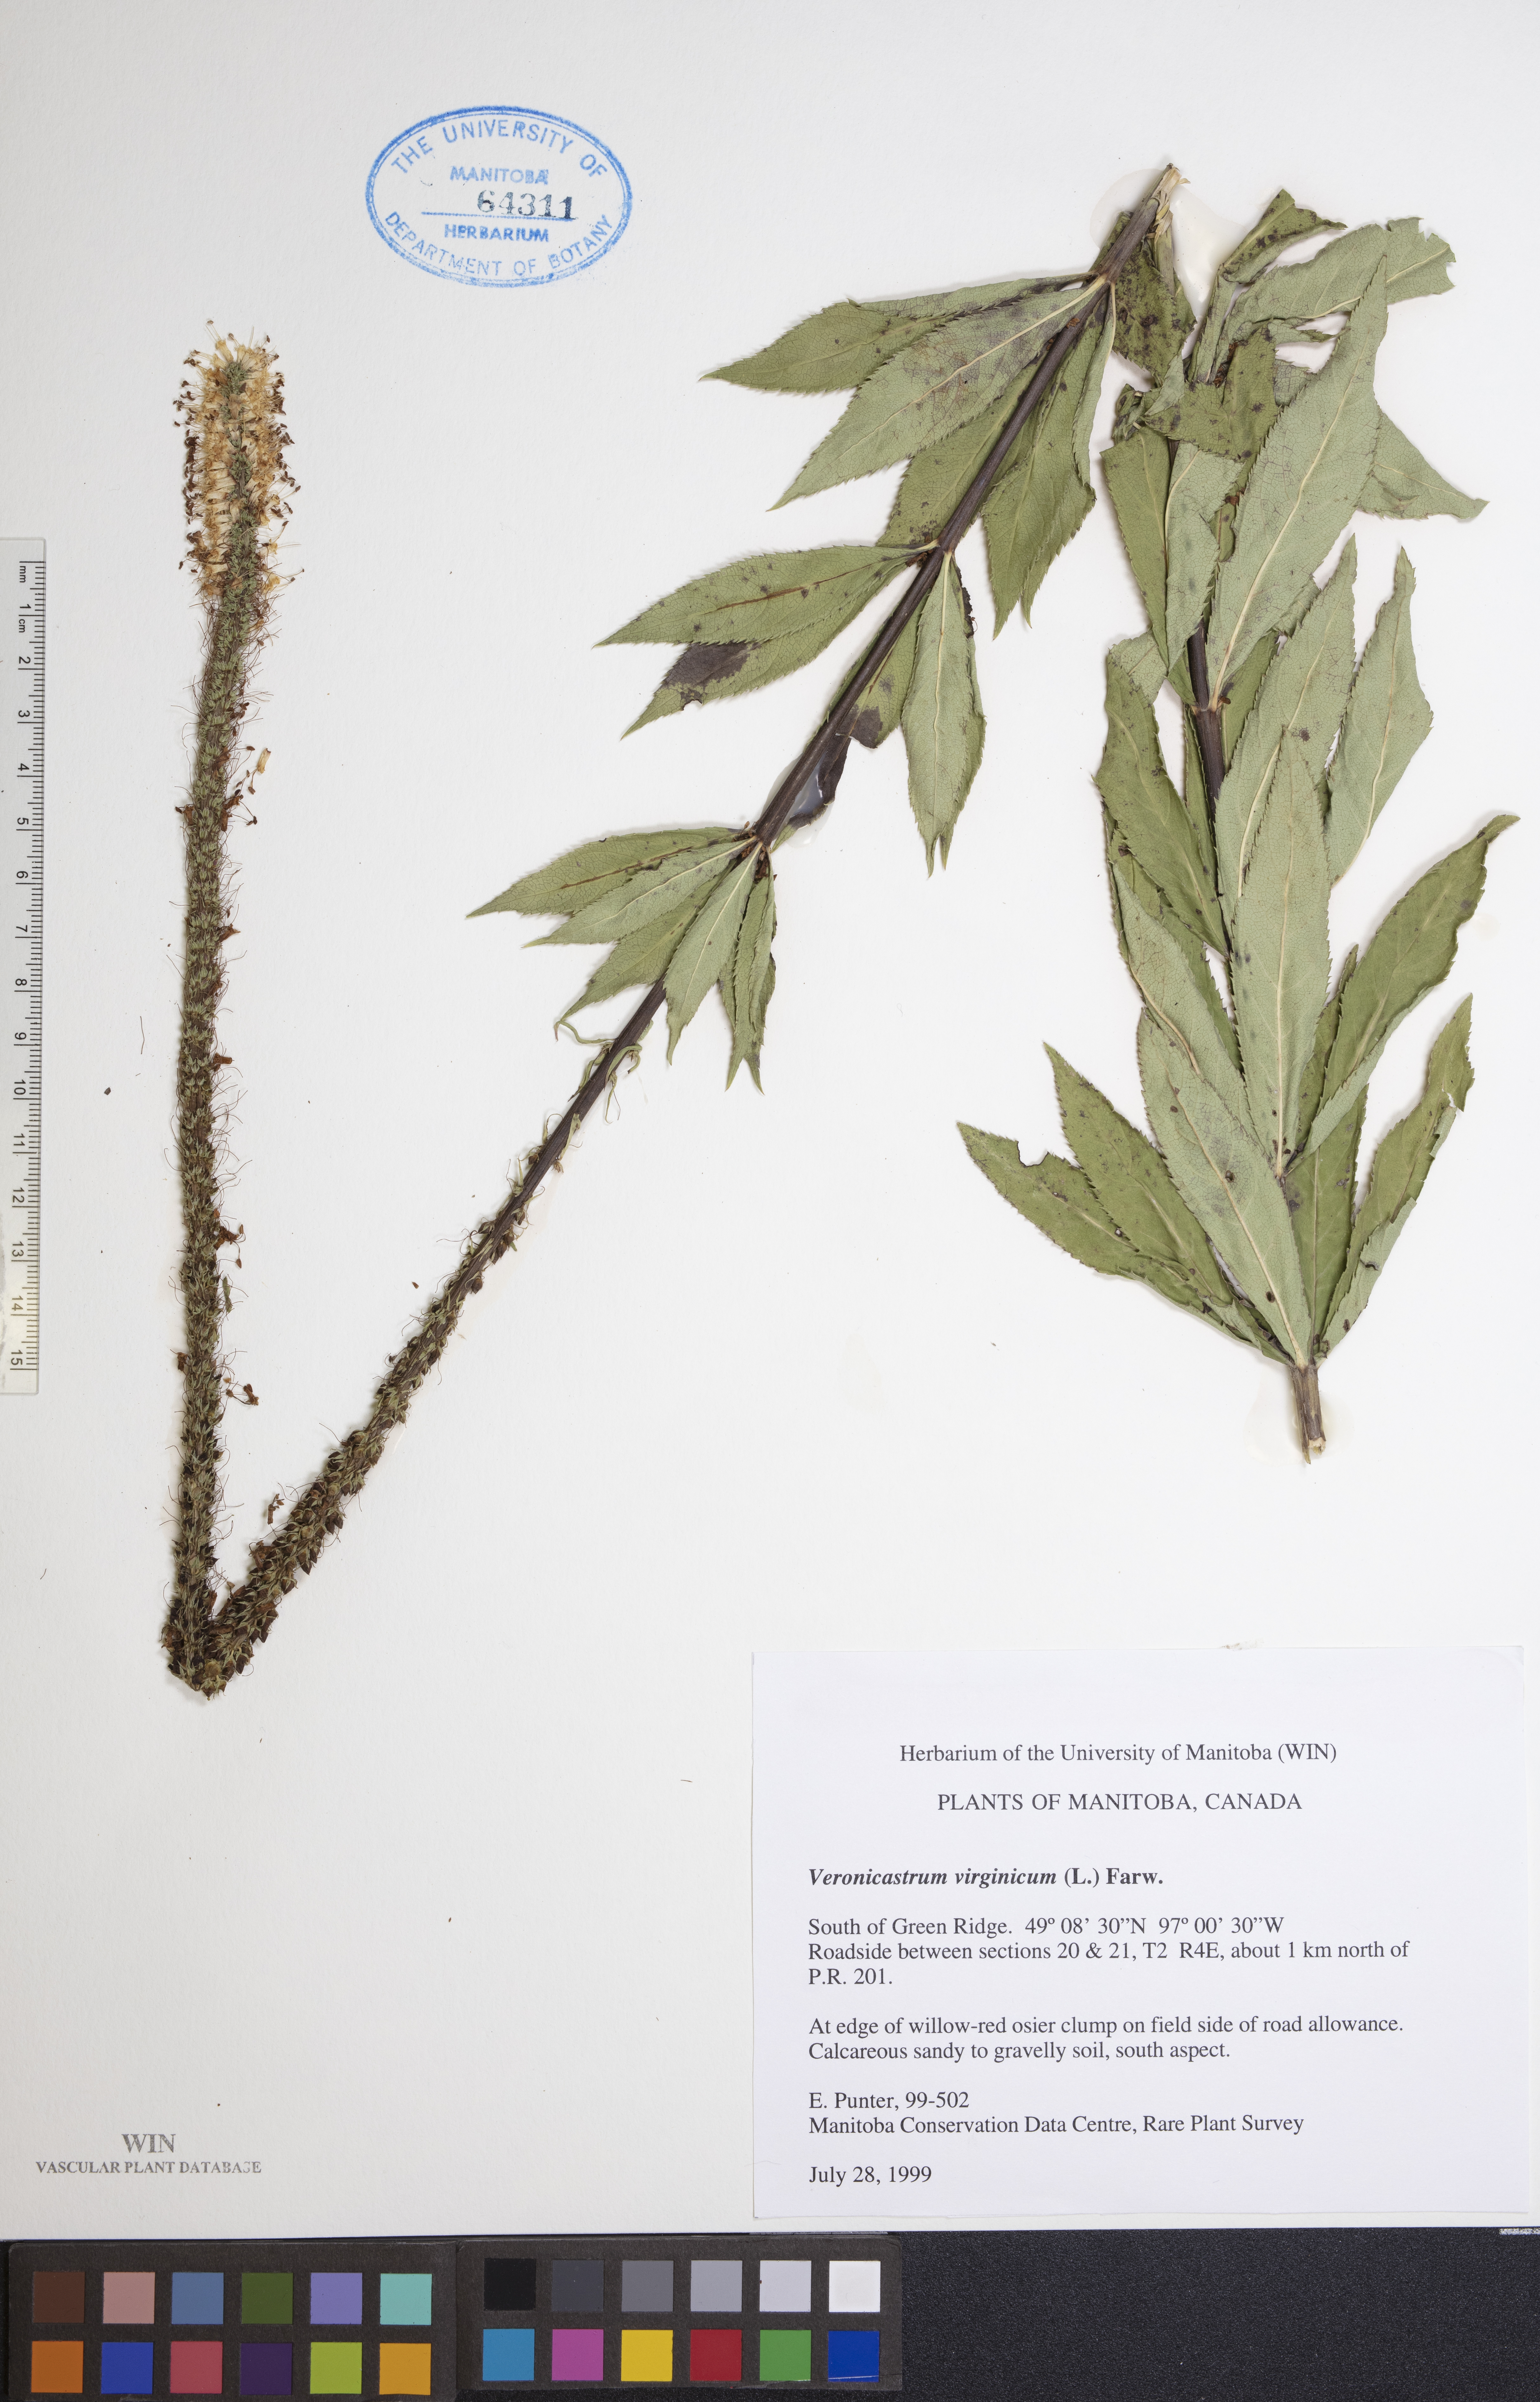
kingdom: Plantae
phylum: Tracheophyta
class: Magnoliopsida
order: Lamiales
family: Plantaginaceae
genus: Veronicastrum
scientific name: Veronicastrum virginicum
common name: Blackroot
